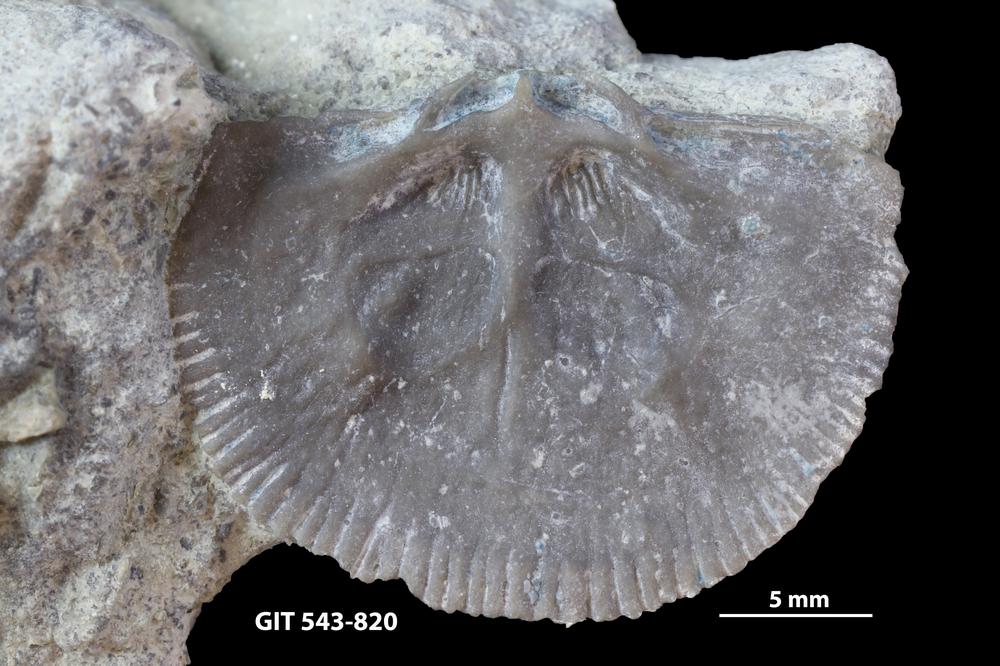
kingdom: Animalia
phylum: Brachiopoda
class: Rhynchonellata
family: Clitambonitidae
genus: Vellamo
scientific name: Vellamo oandoensis
